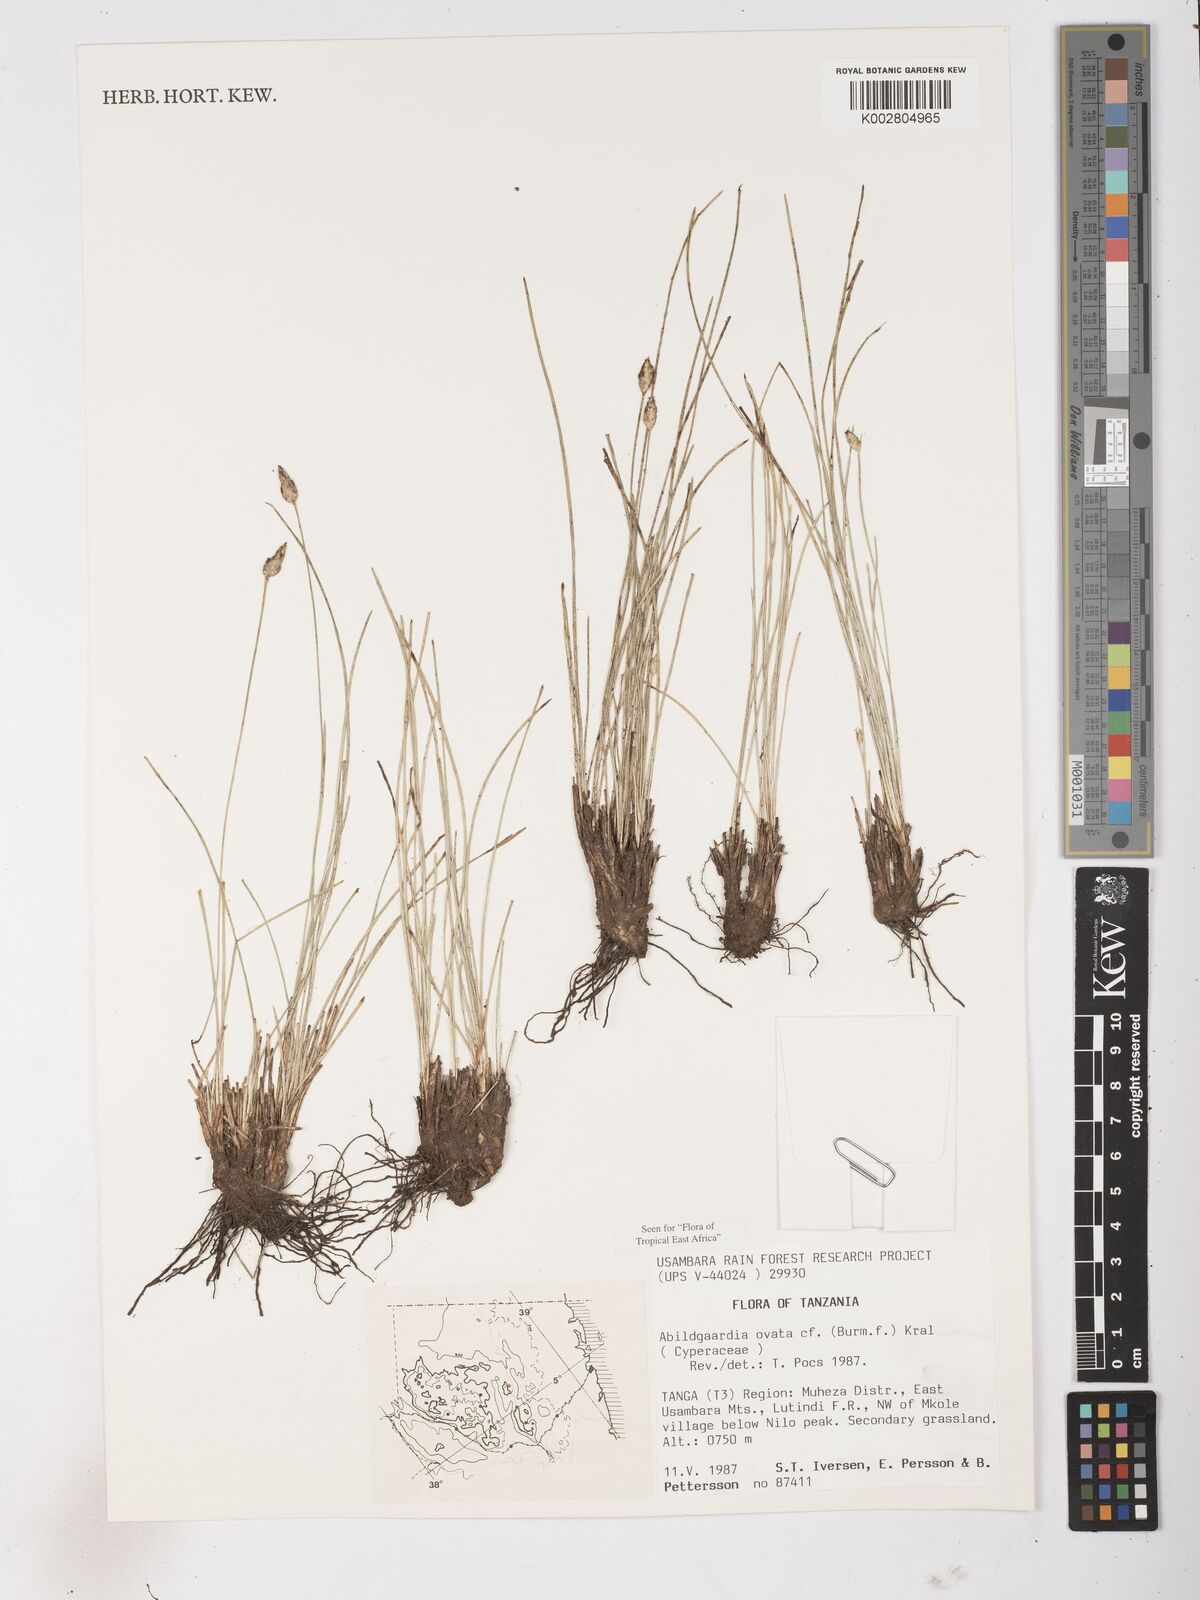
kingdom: Plantae
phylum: Tracheophyta
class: Liliopsida
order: Poales
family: Cyperaceae
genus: Abildgaardia
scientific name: Abildgaardia ovata
